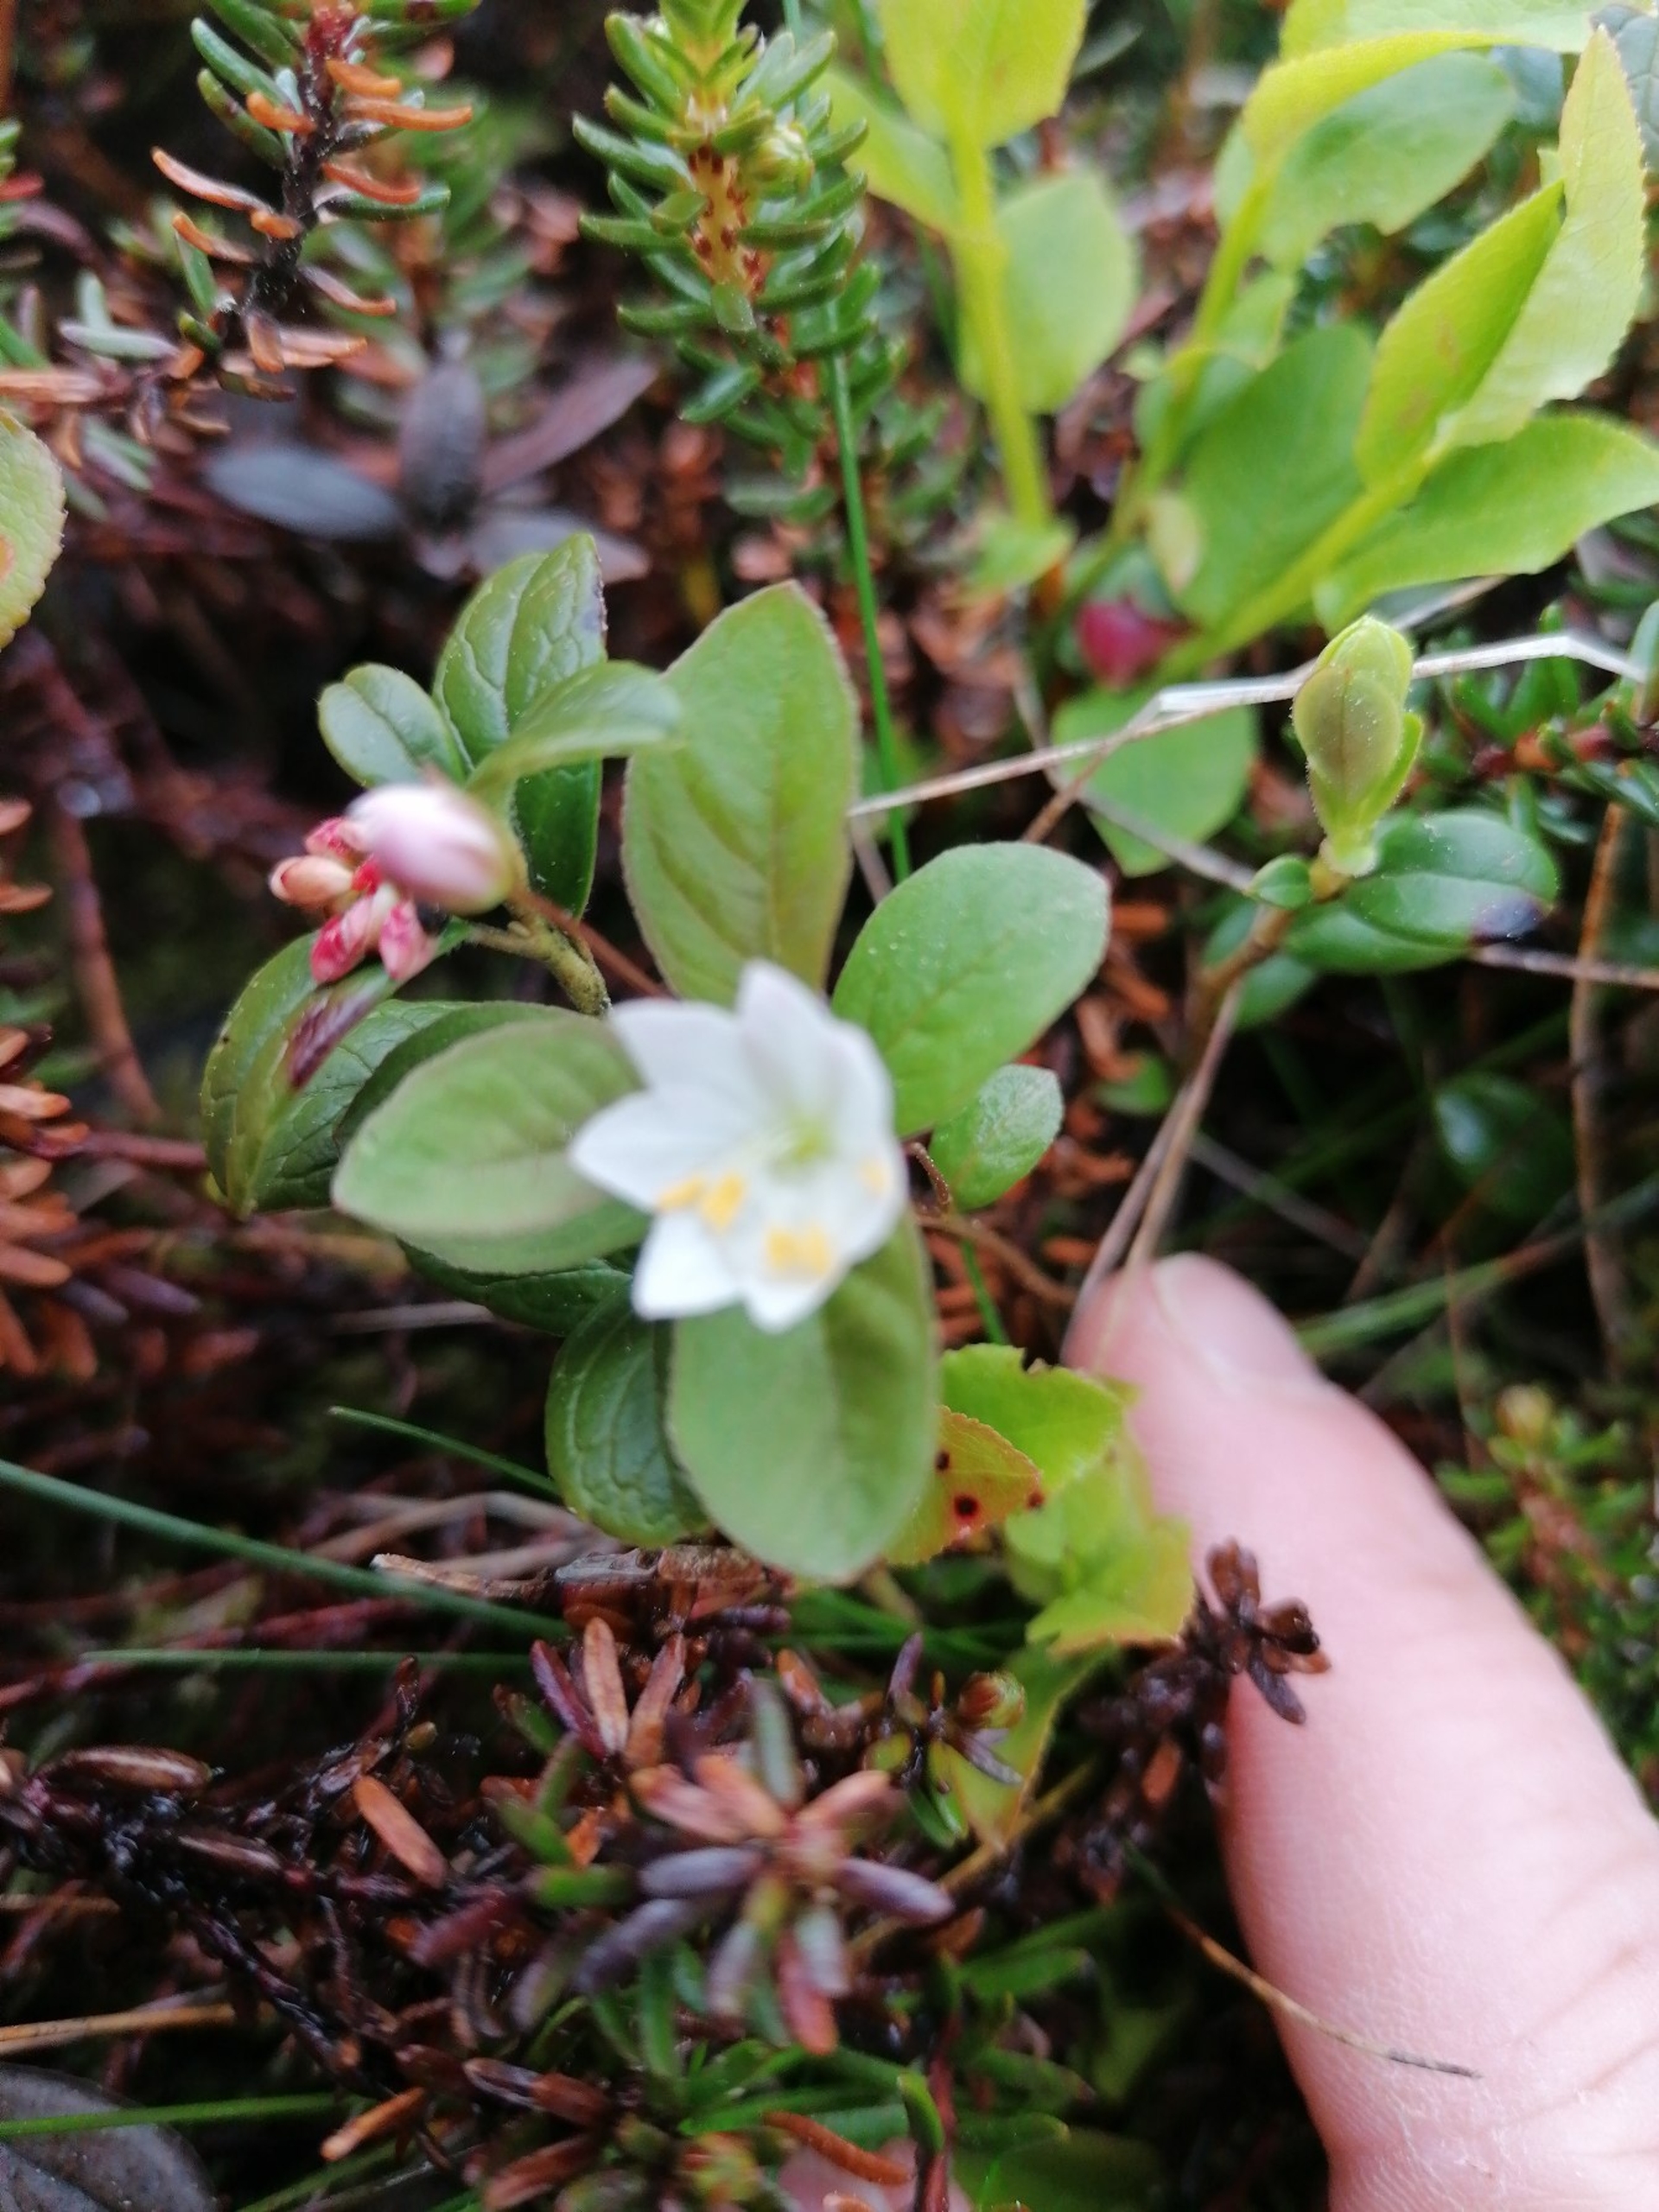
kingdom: Plantae
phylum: Tracheophyta
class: Magnoliopsida
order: Ericales
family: Primulaceae
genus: Lysimachia
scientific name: Lysimachia europaea
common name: Skovstjerne
